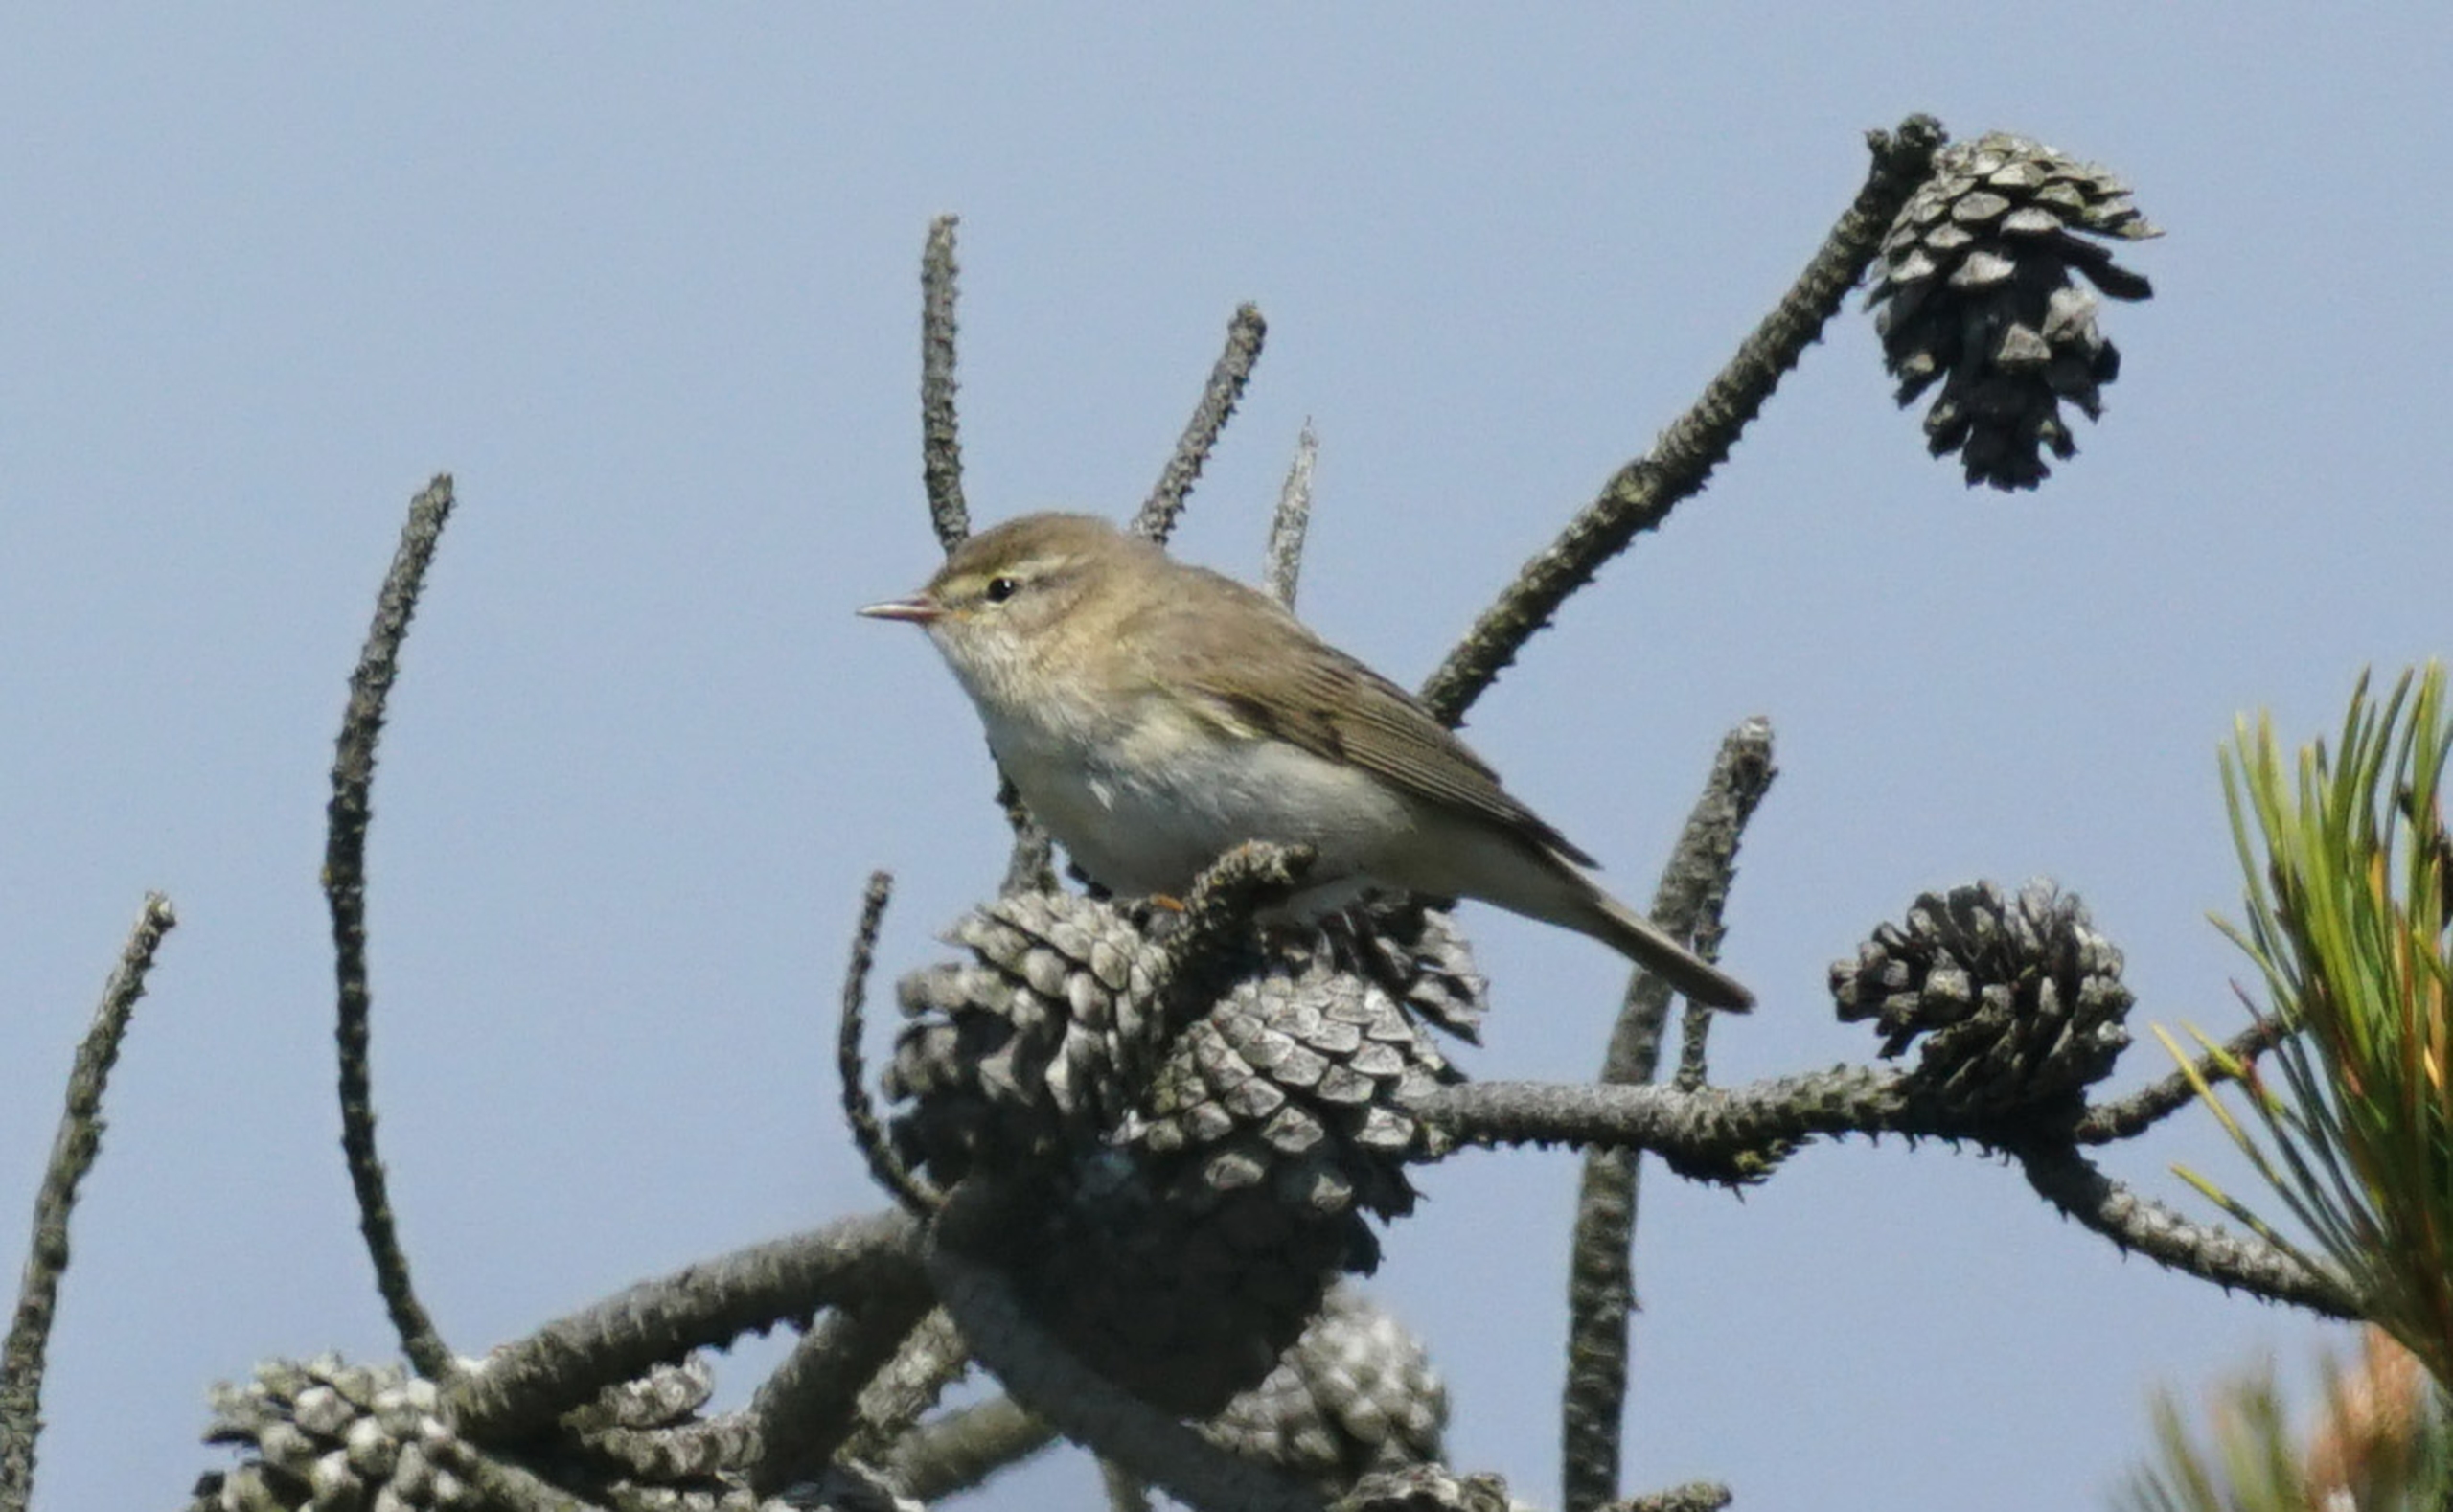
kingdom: Animalia
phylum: Chordata
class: Aves
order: Passeriformes
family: Phylloscopidae
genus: Phylloscopus
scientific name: Phylloscopus trochilus
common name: Løvsanger
